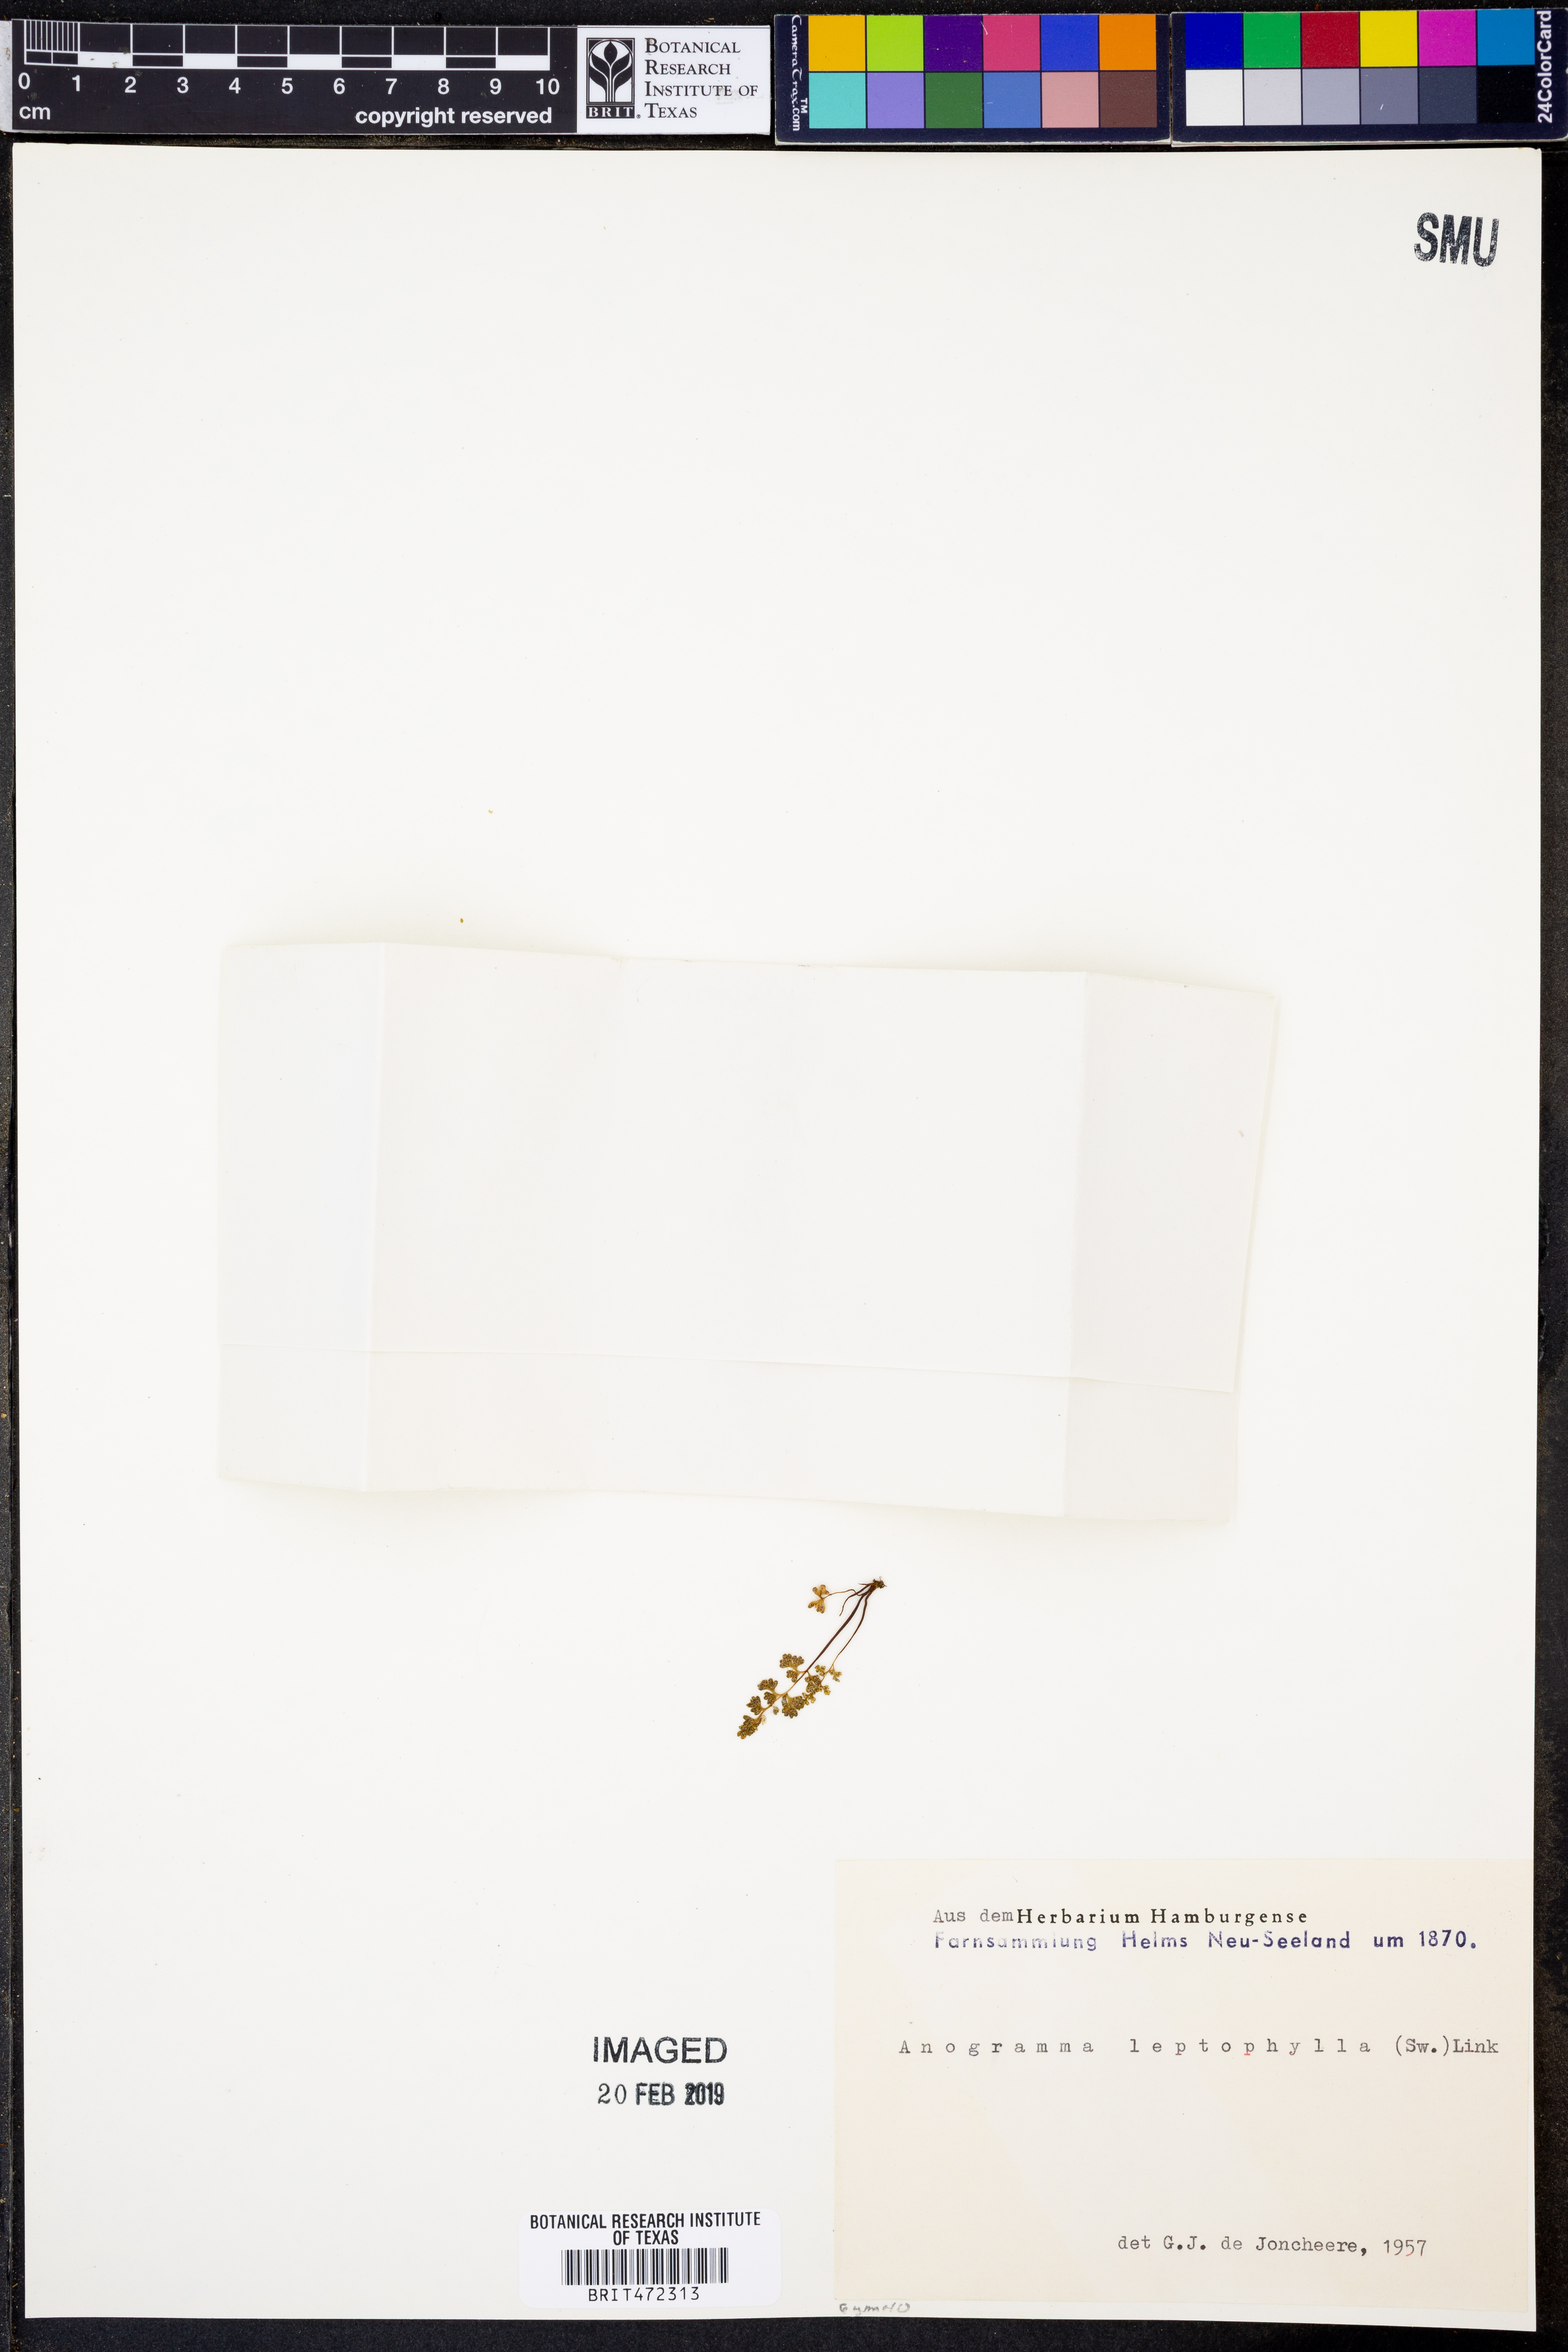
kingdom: Plantae
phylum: Tracheophyta
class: Polypodiopsida
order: Polypodiales
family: Pteridaceae
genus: Anogramma
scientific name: Anogramma leptophylla
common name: Jersey fern
